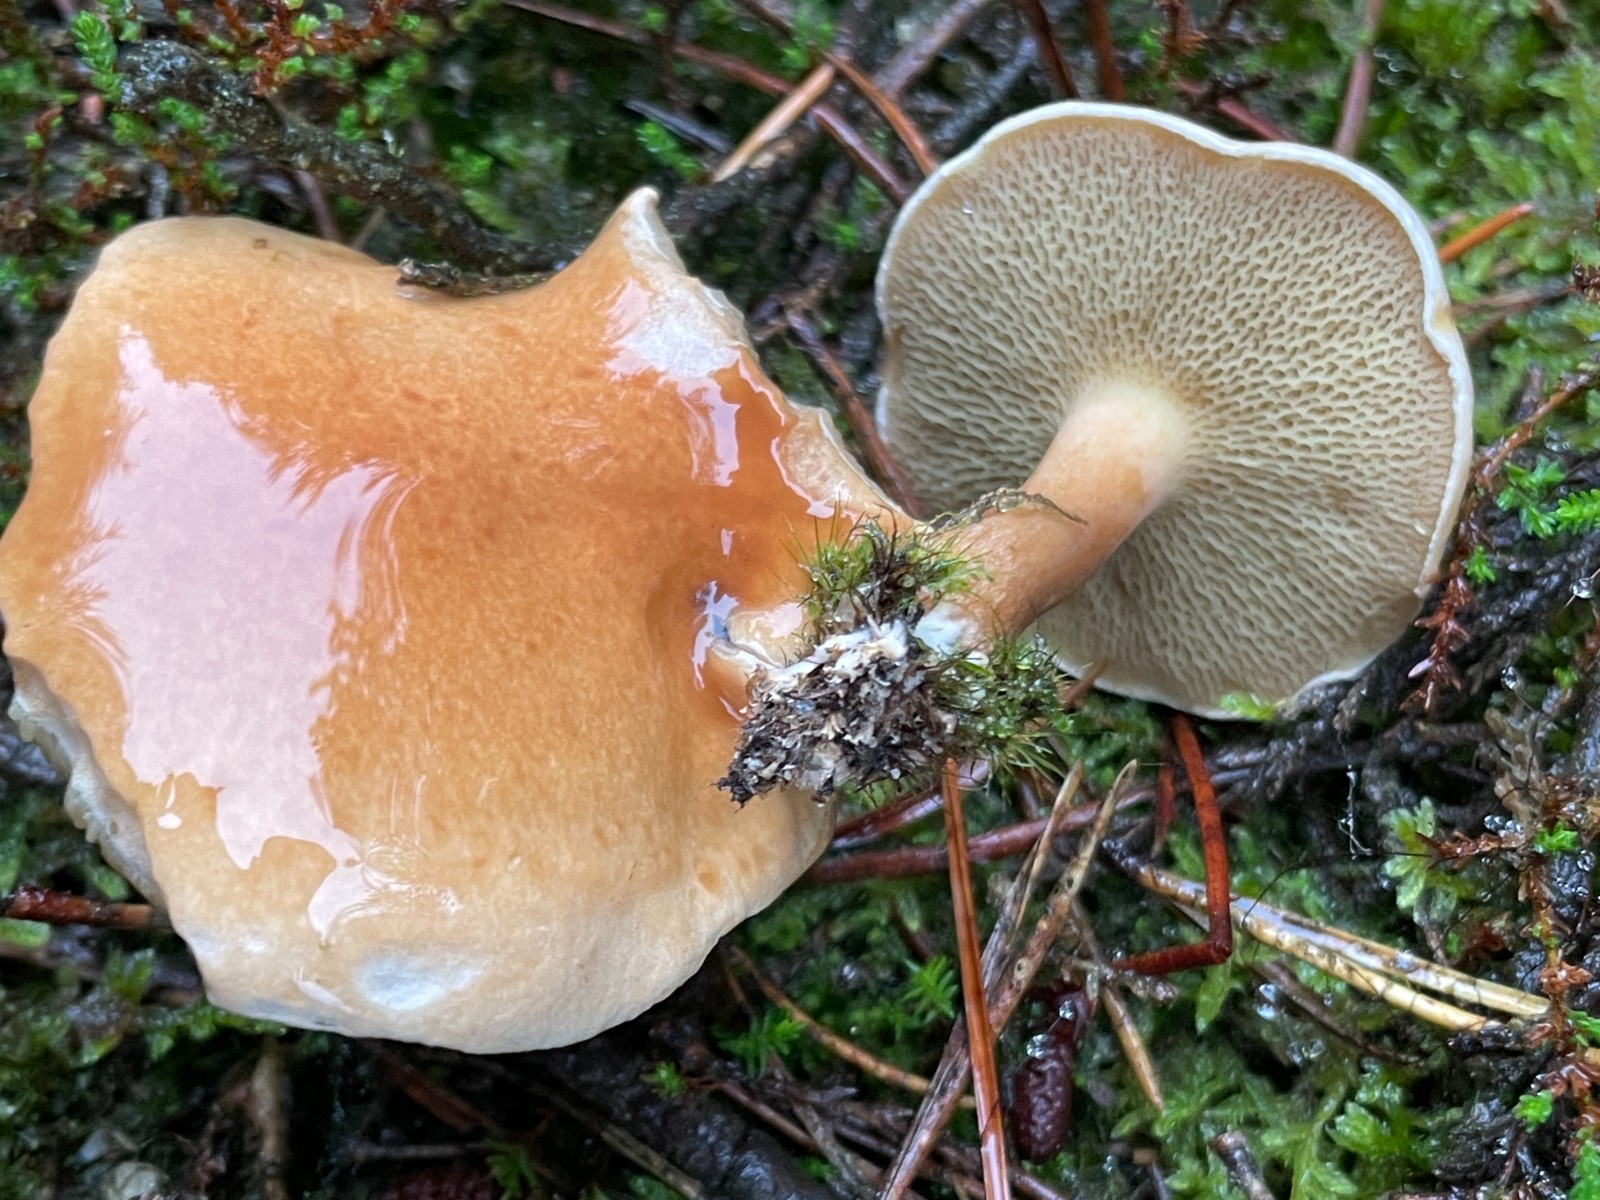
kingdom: Fungi
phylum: Basidiomycota
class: Agaricomycetes
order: Boletales
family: Suillaceae
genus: Suillus
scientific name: Suillus bovinus
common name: grovporet slimrørhat
